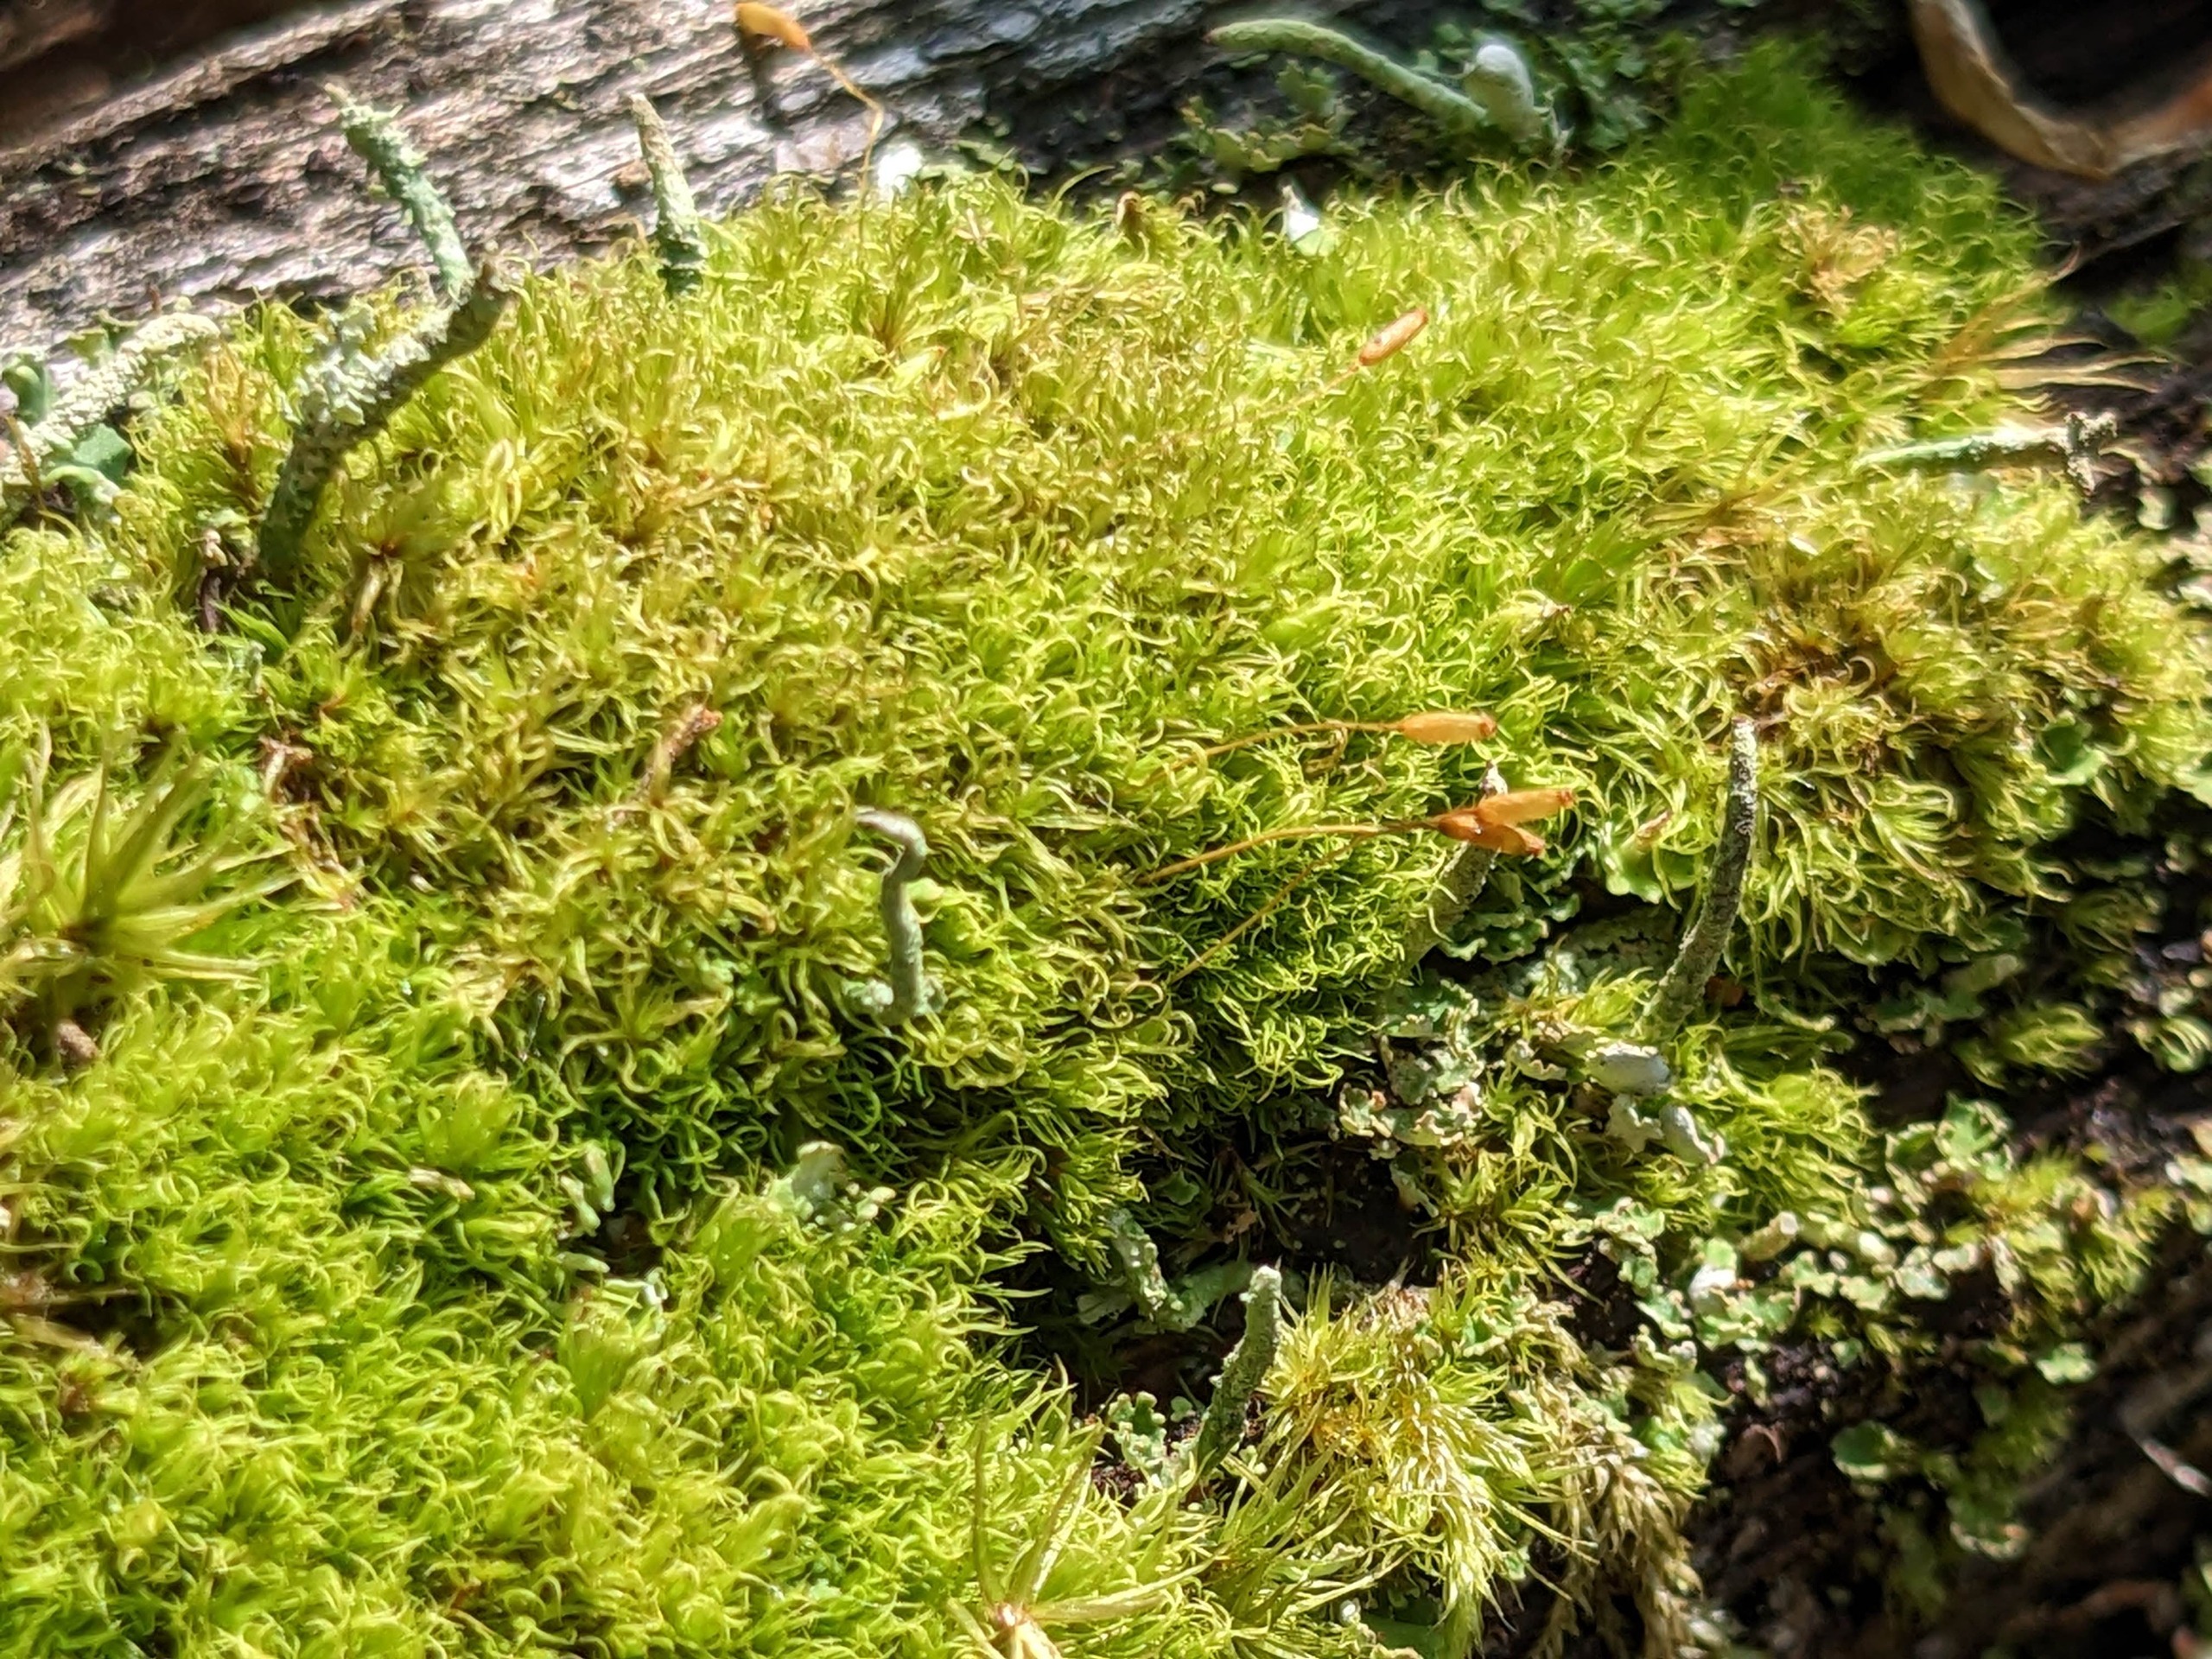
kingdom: Plantae
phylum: Bryophyta
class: Bryopsida
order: Dicranales
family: Rhabdoweisiaceae
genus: Dicranoweisia
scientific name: Dicranoweisia cirrata
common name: Almindelig krøltuemos
